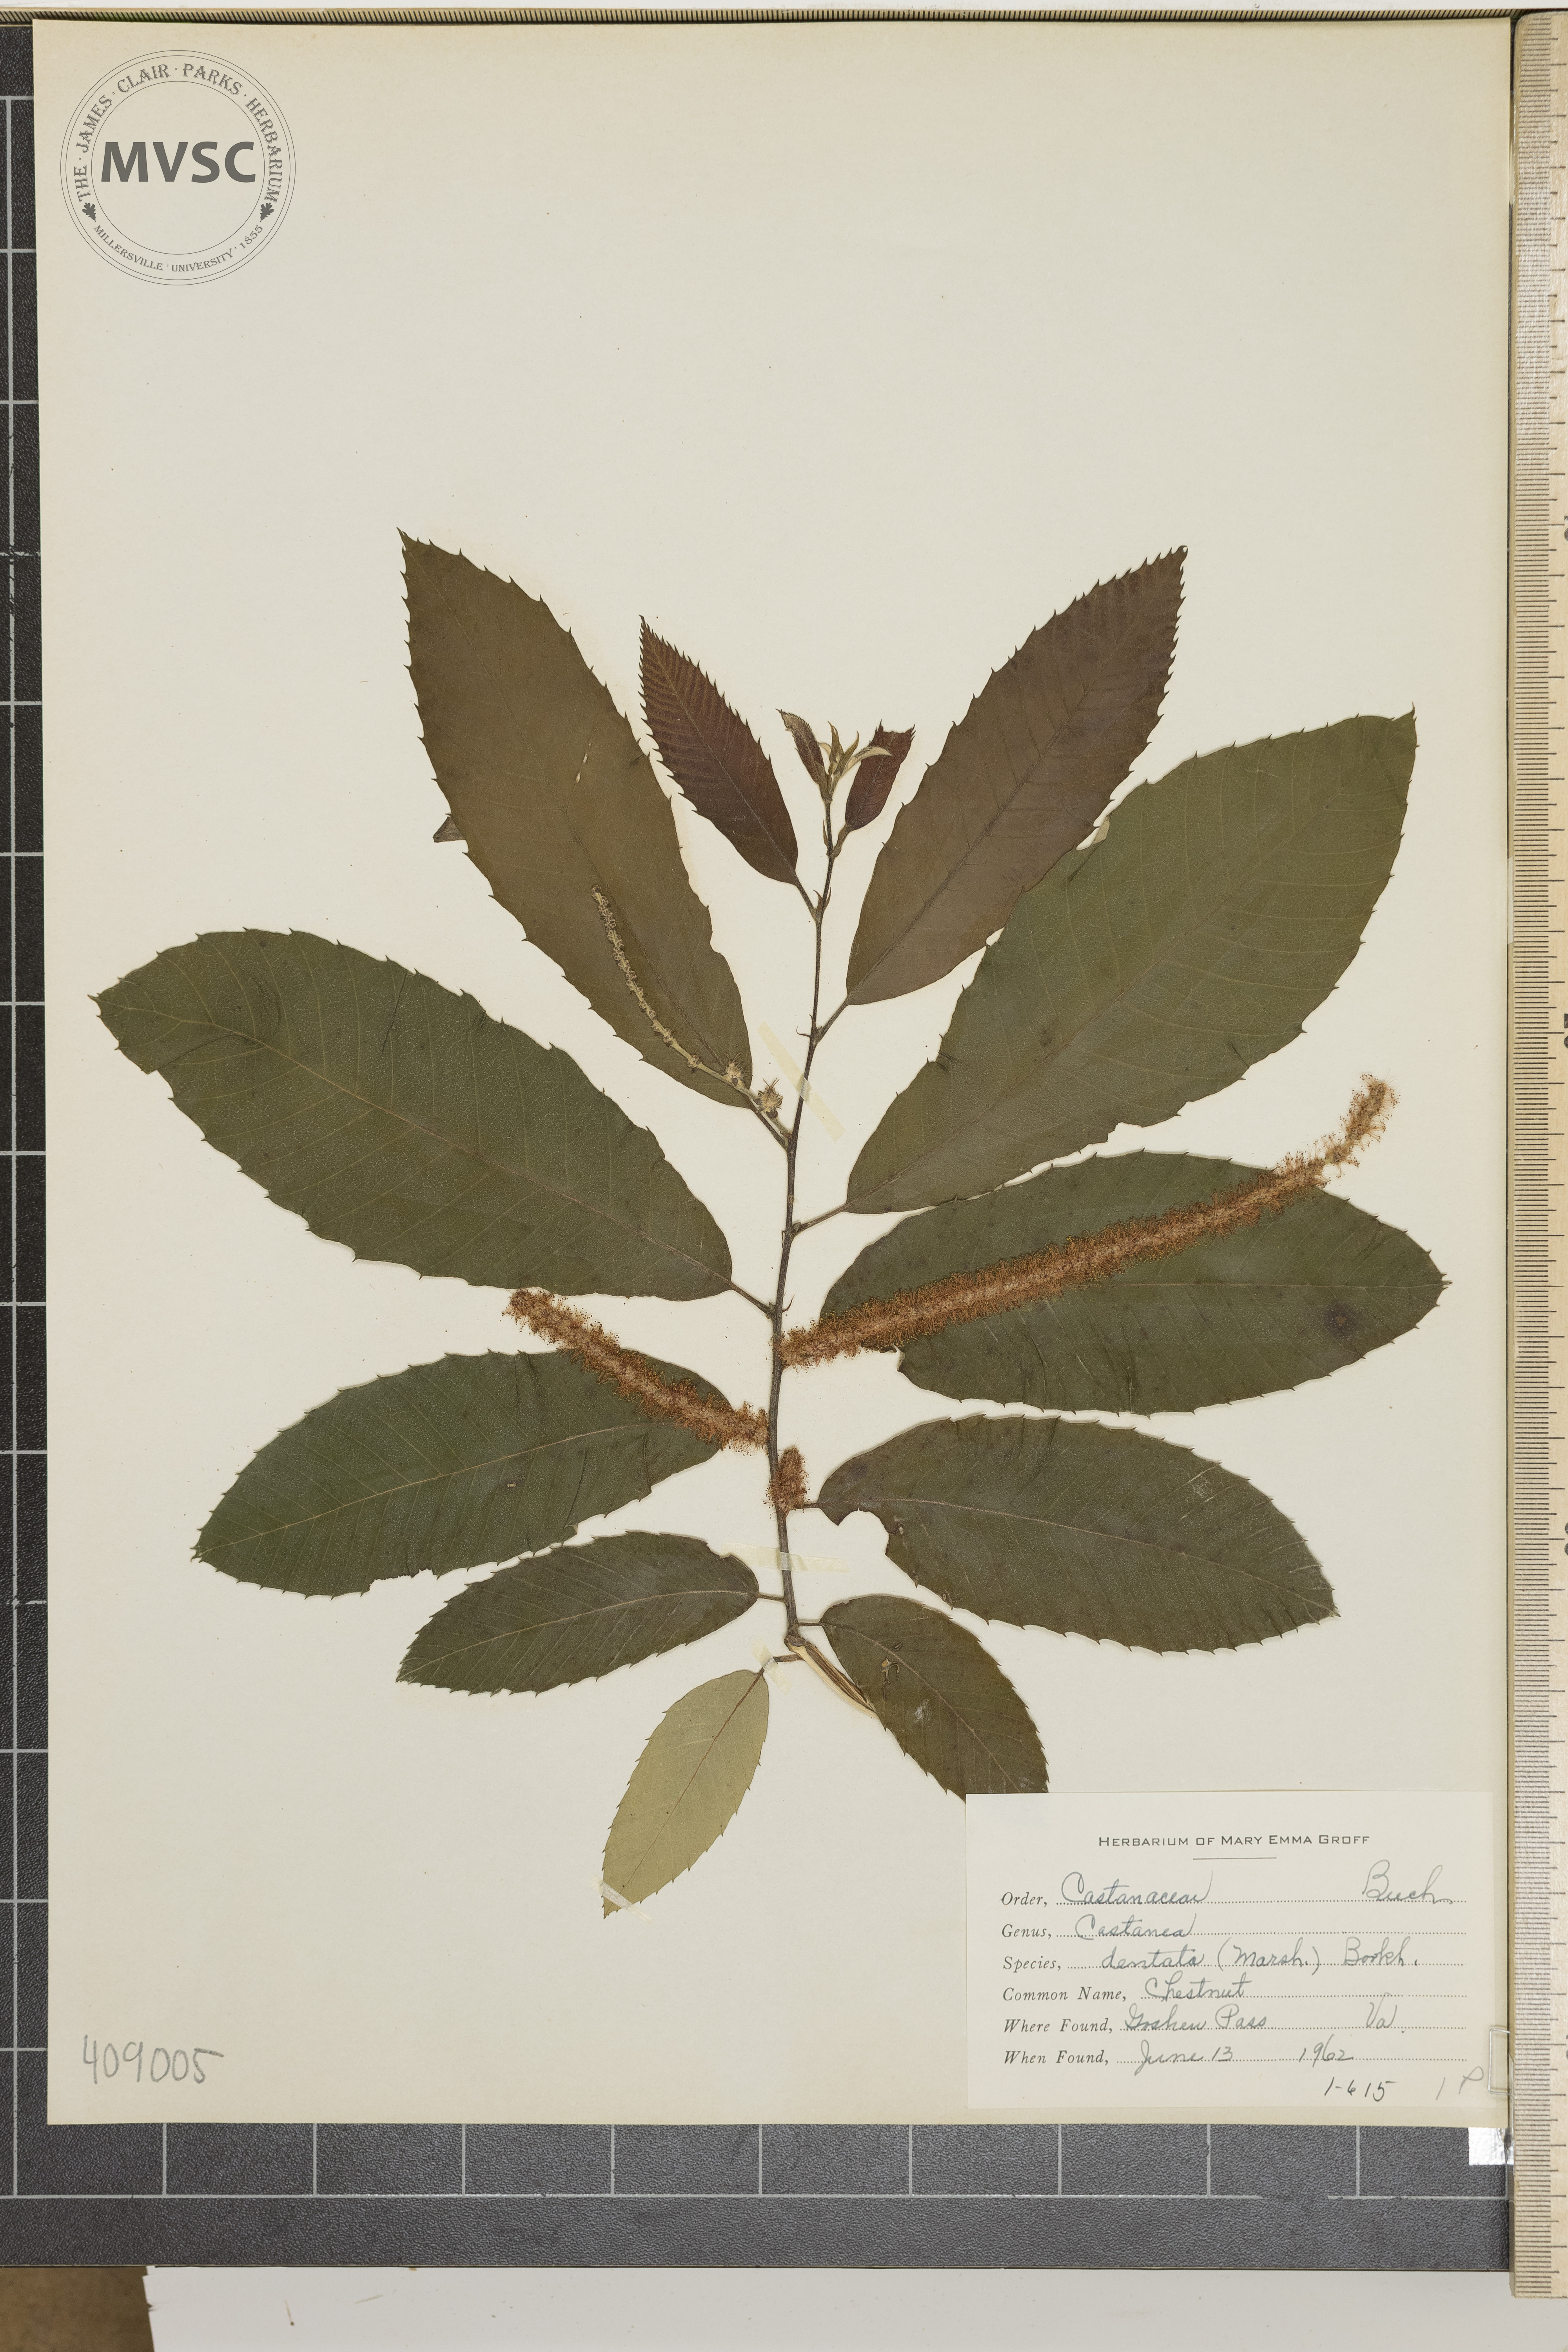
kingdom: Plantae
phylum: Tracheophyta
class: Magnoliopsida
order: Fagales
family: Fagaceae
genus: Castanea
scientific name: Castanea dentata
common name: Chestnut
